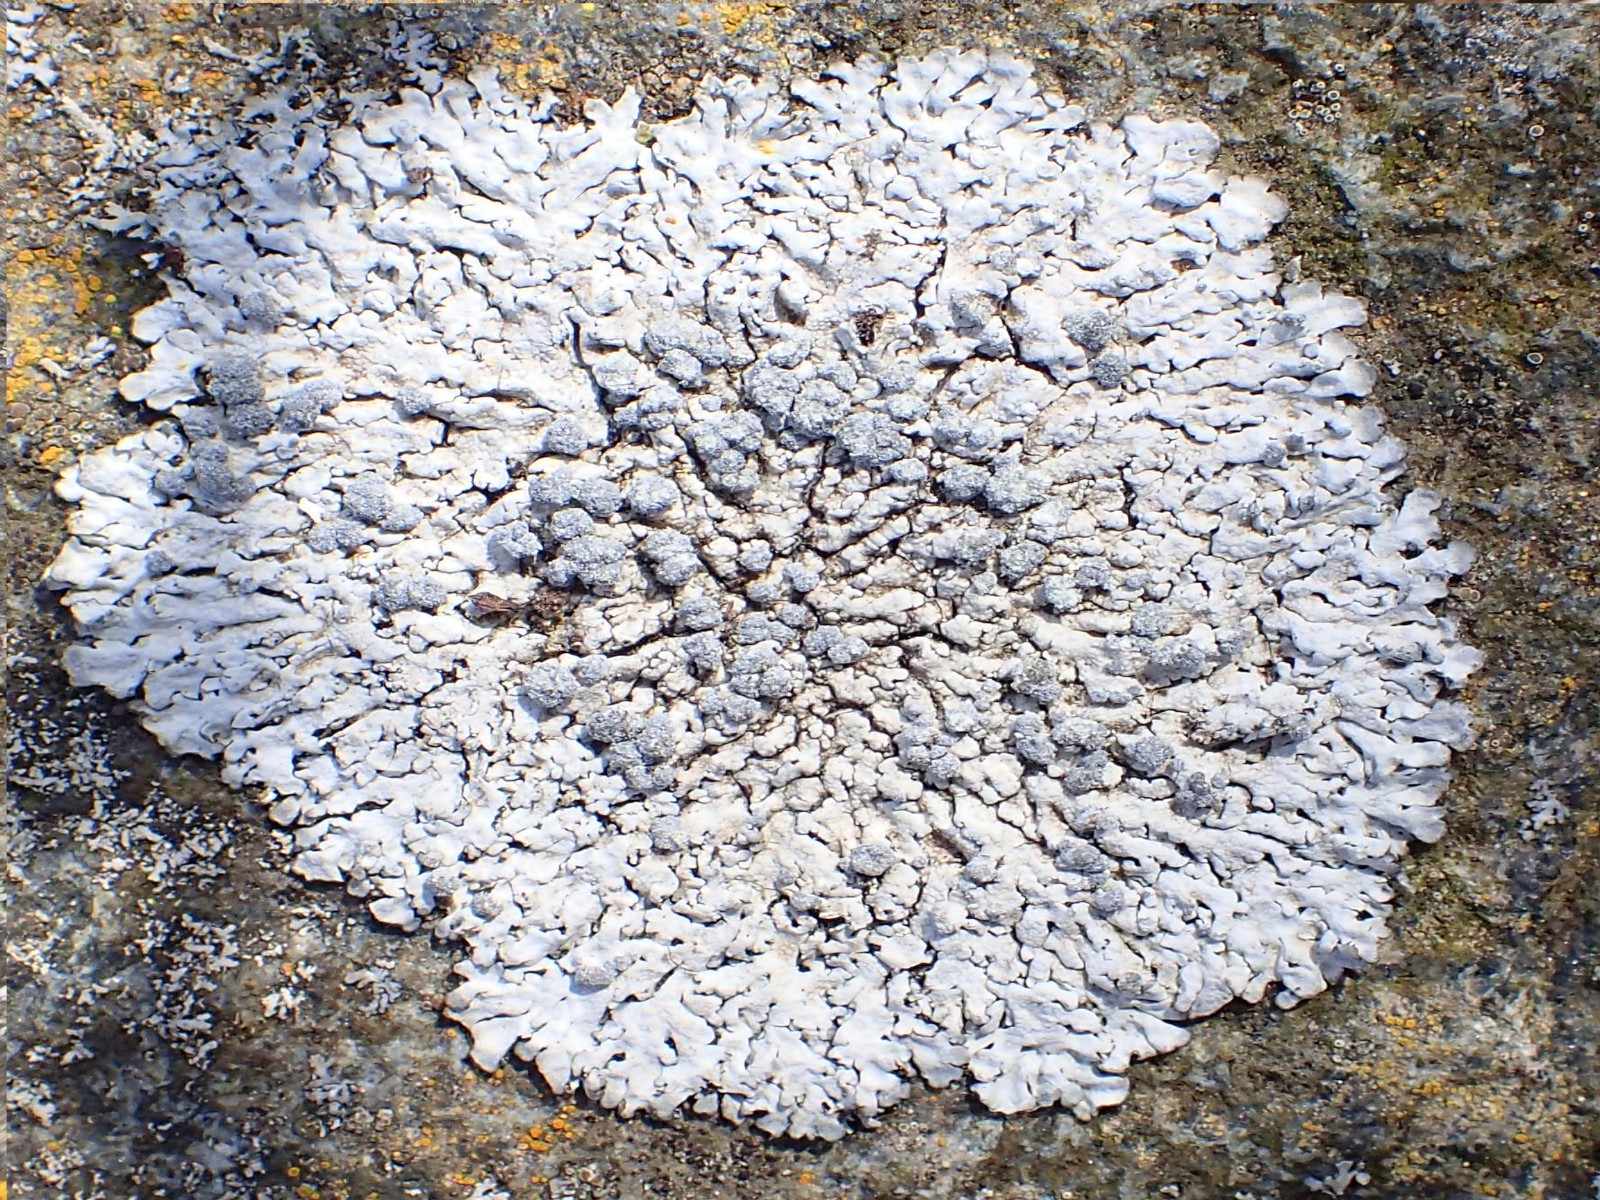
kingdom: Fungi
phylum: Ascomycota
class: Lecanoromycetes
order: Caliciales
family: Physciaceae
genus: Physcia
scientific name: Physcia caesia
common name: blågrå rosetlav
